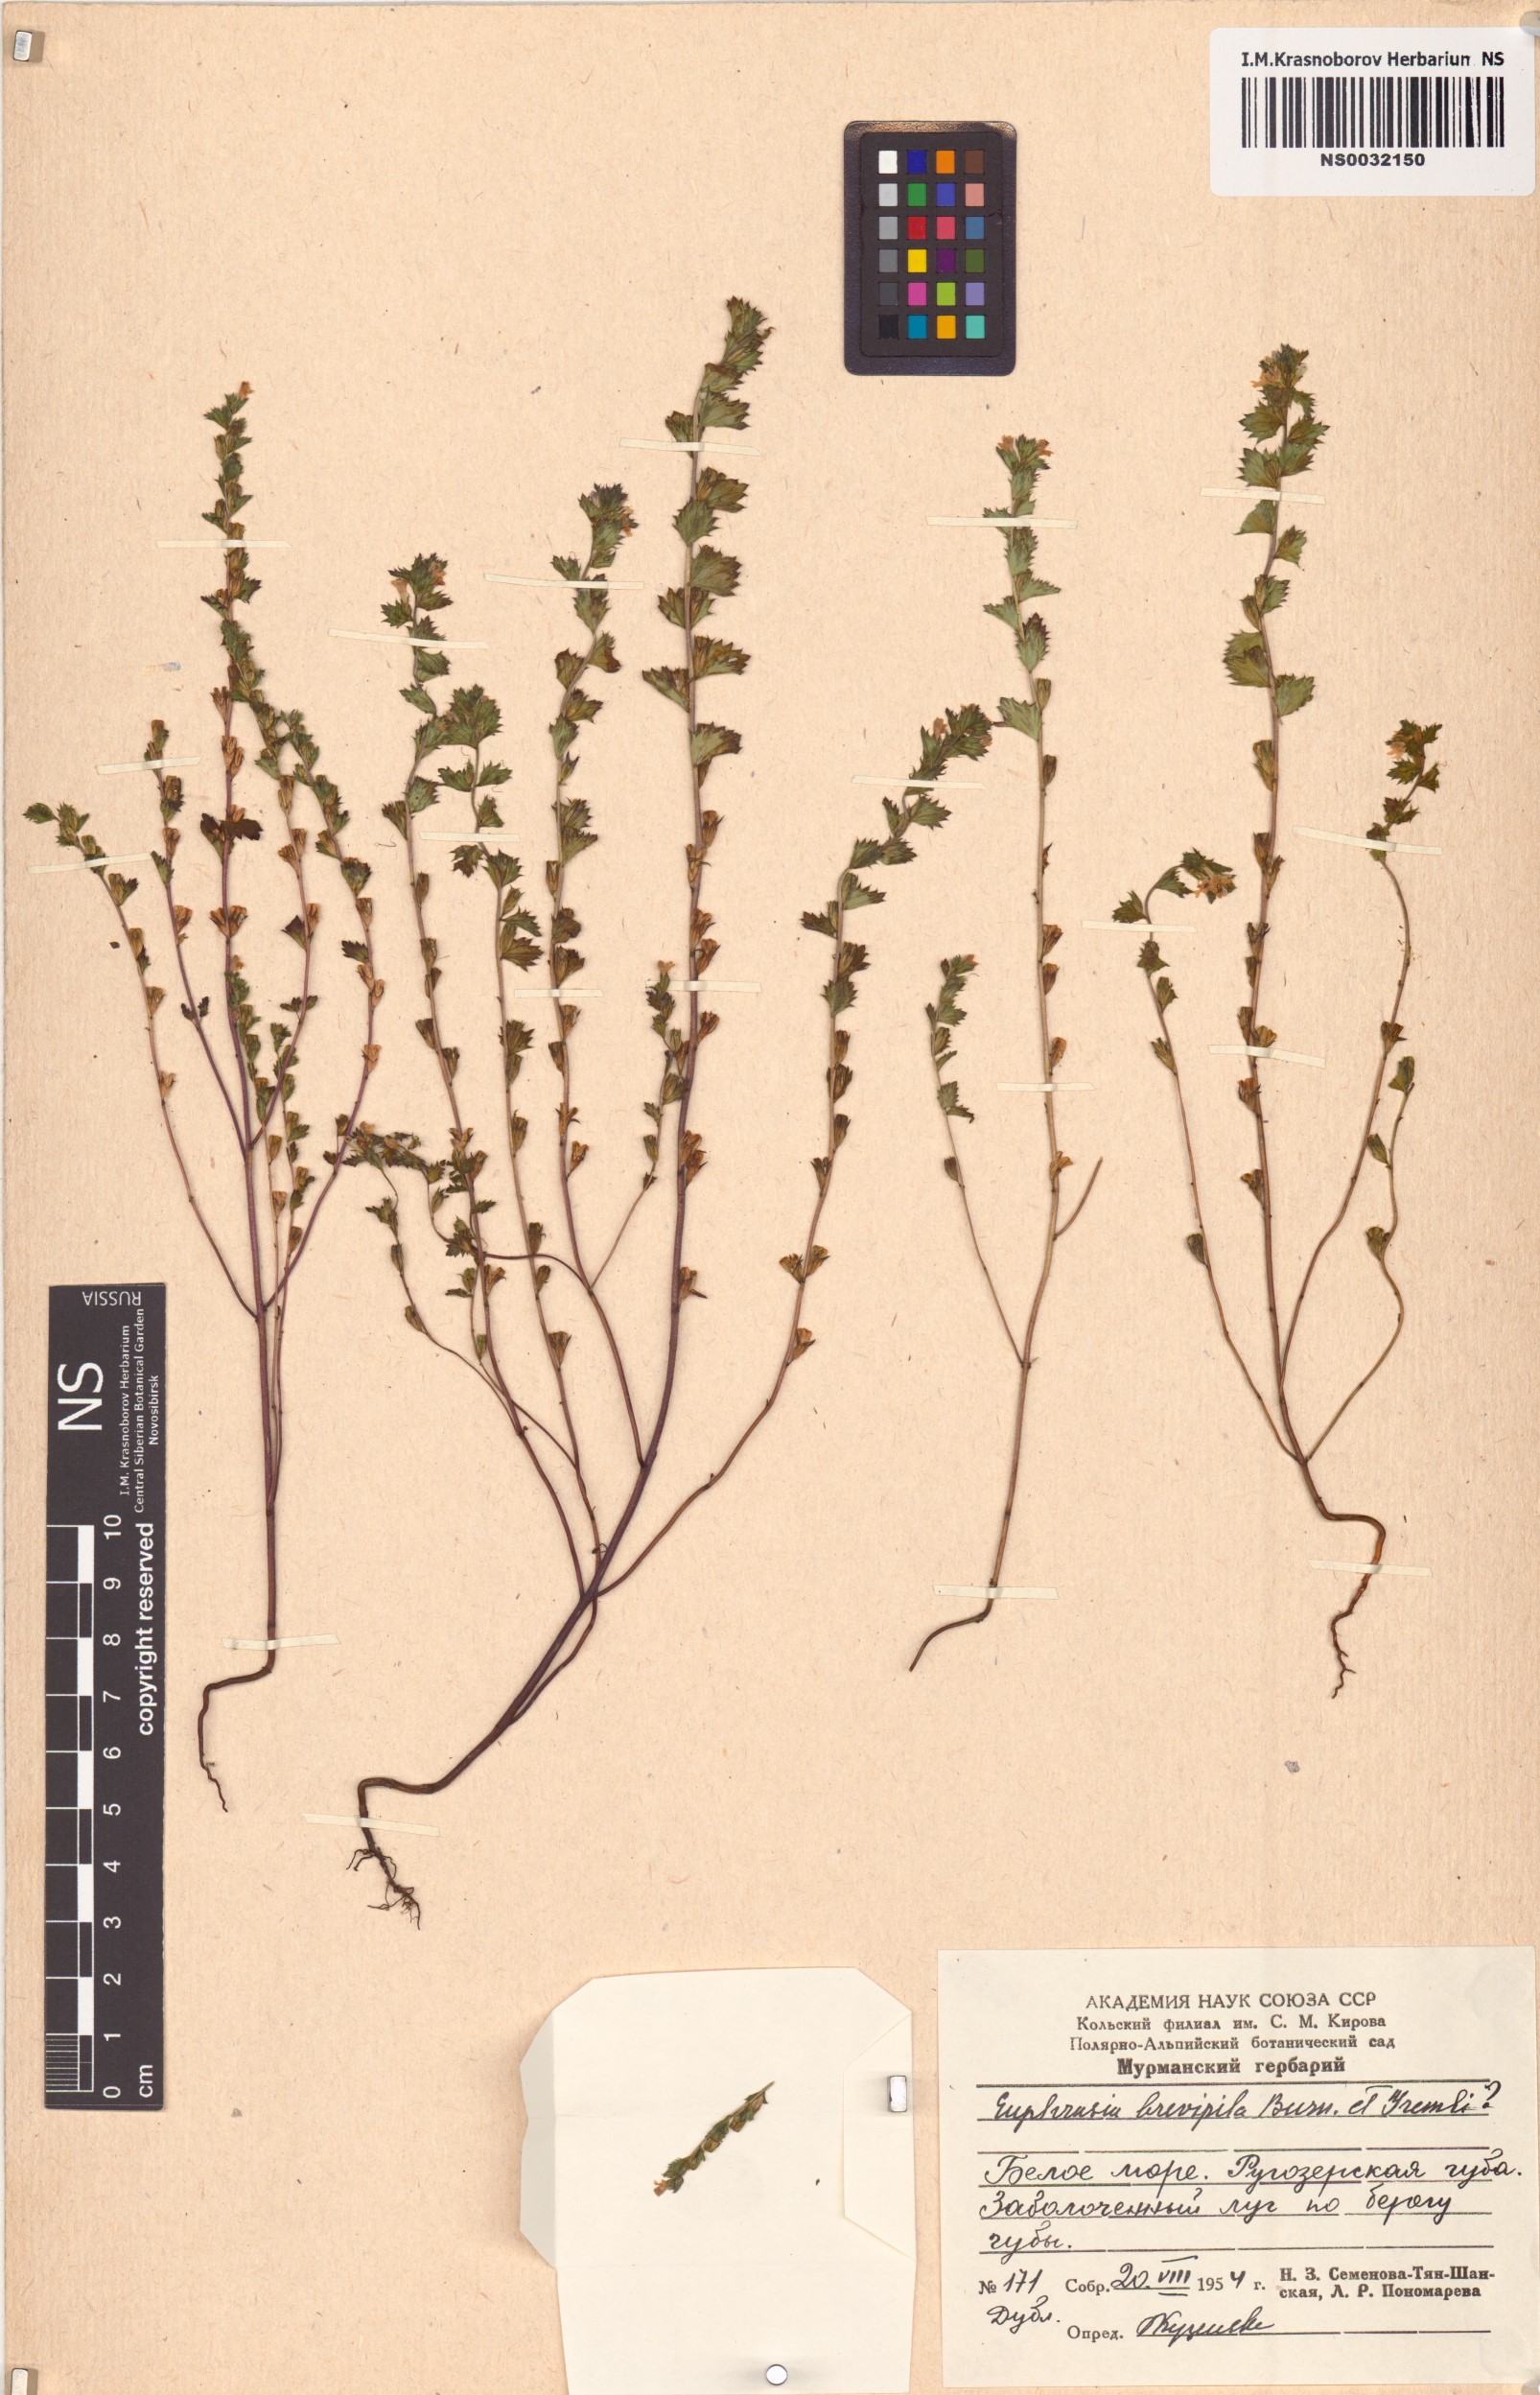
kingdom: Plantae
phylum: Tracheophyta
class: Magnoliopsida
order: Lamiales
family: Orobanchaceae
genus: Euphrasia
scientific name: Euphrasia vernalis
